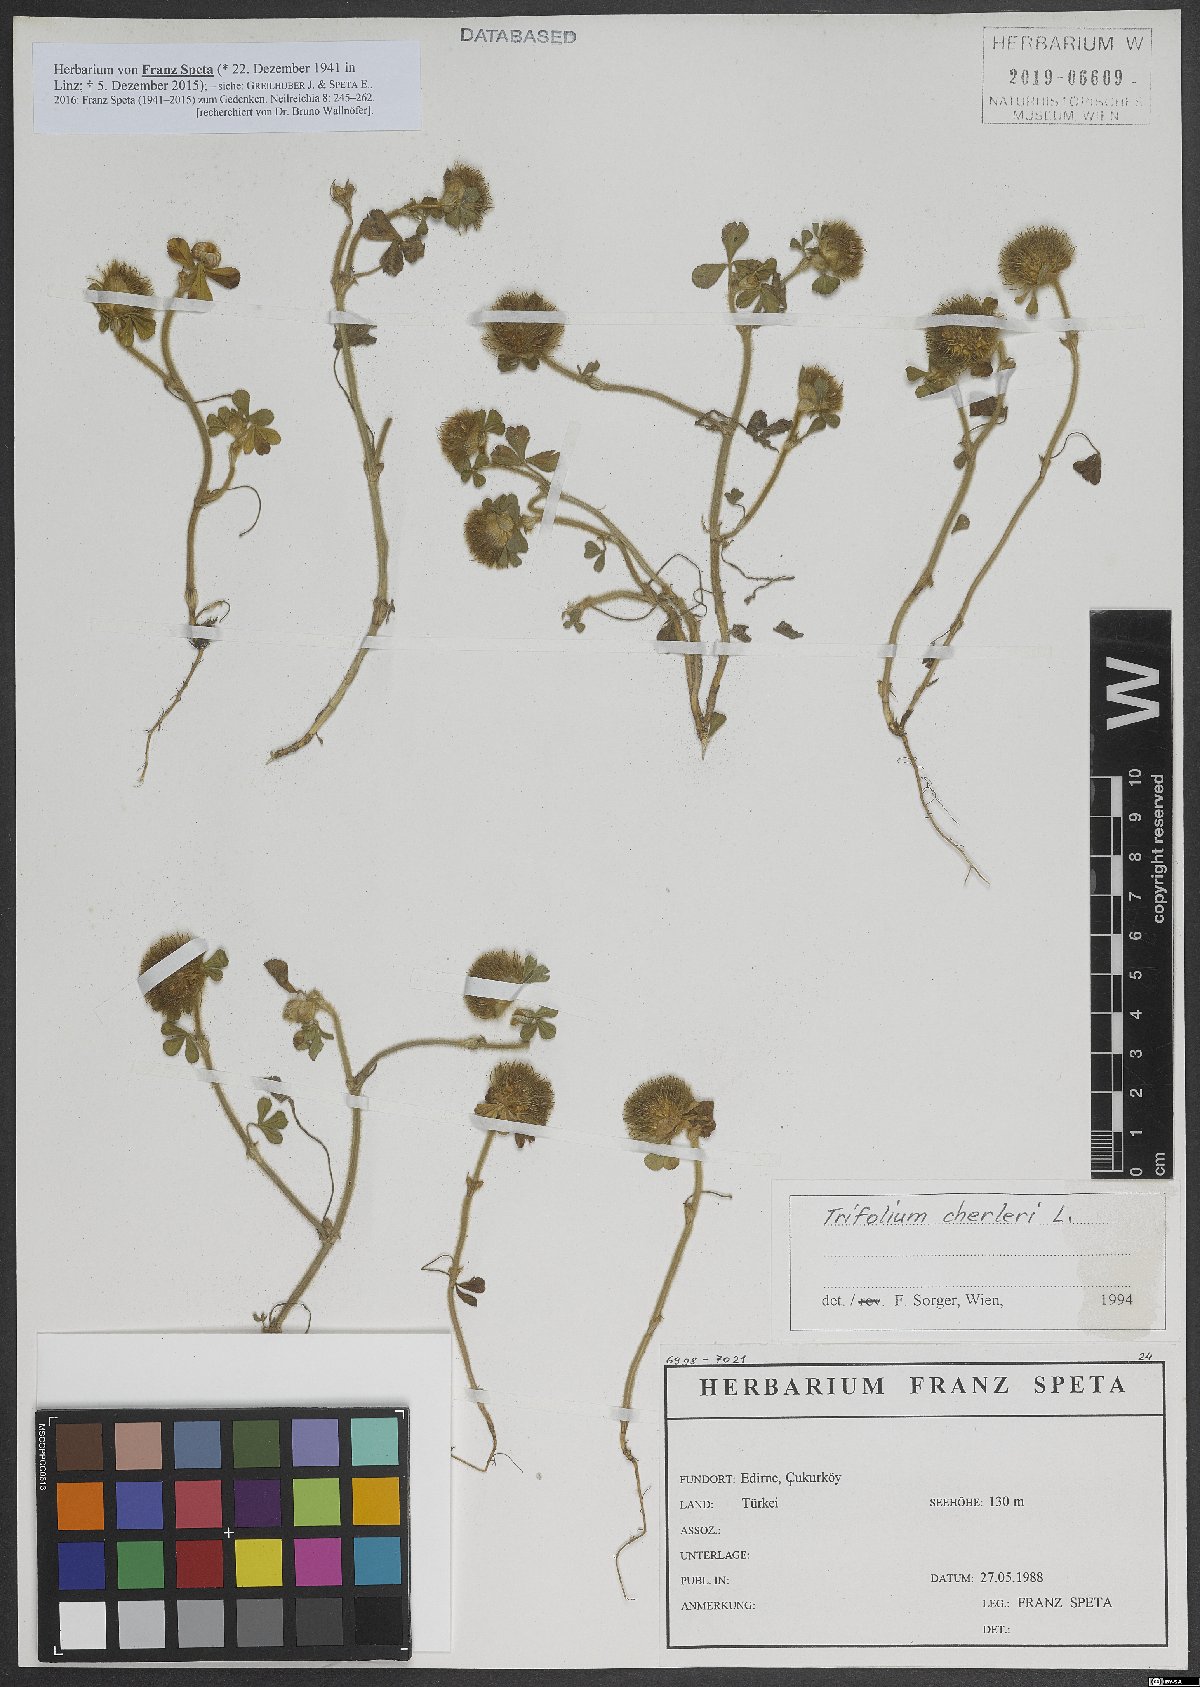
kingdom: Plantae
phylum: Tracheophyta
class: Magnoliopsida
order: Fabales
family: Fabaceae
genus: Trifolium
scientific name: Trifolium cherleri
